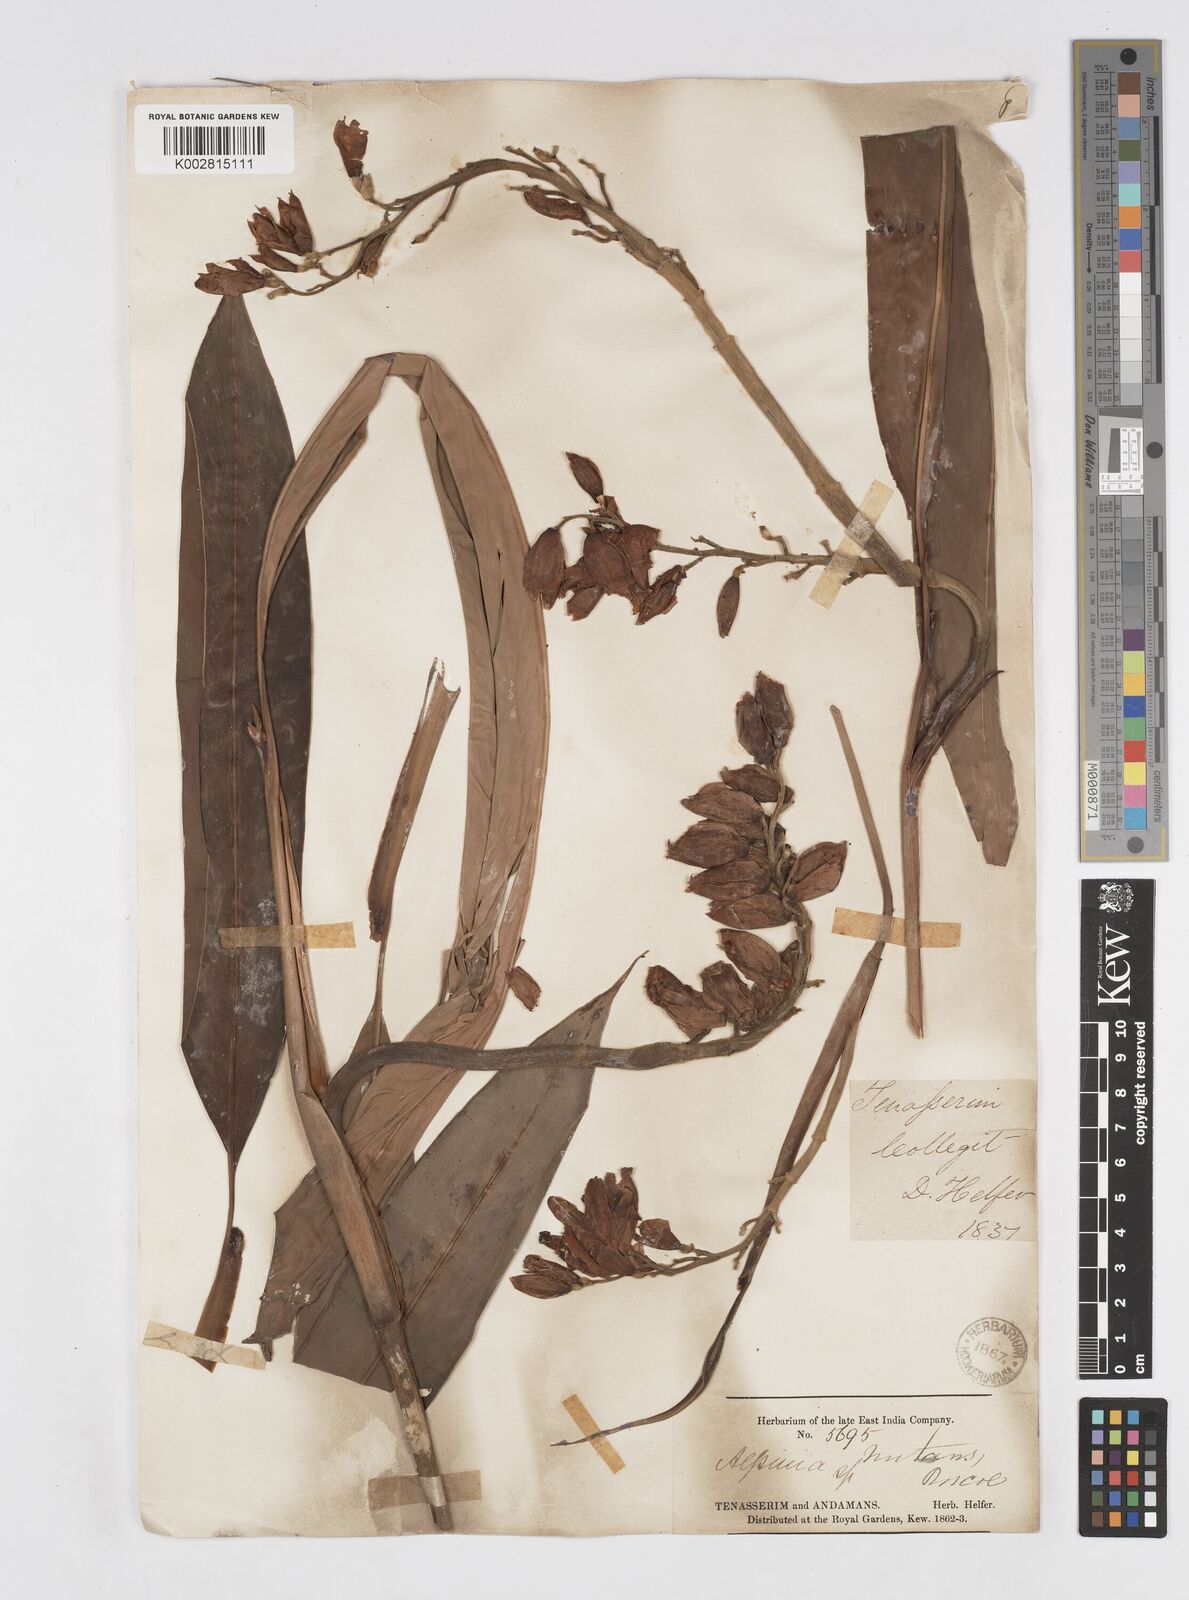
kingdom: Plantae
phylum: Tracheophyta
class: Liliopsida
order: Zingiberales
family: Zingiberaceae
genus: Alpinia
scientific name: Alpinia zerumbet
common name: Shellplant
